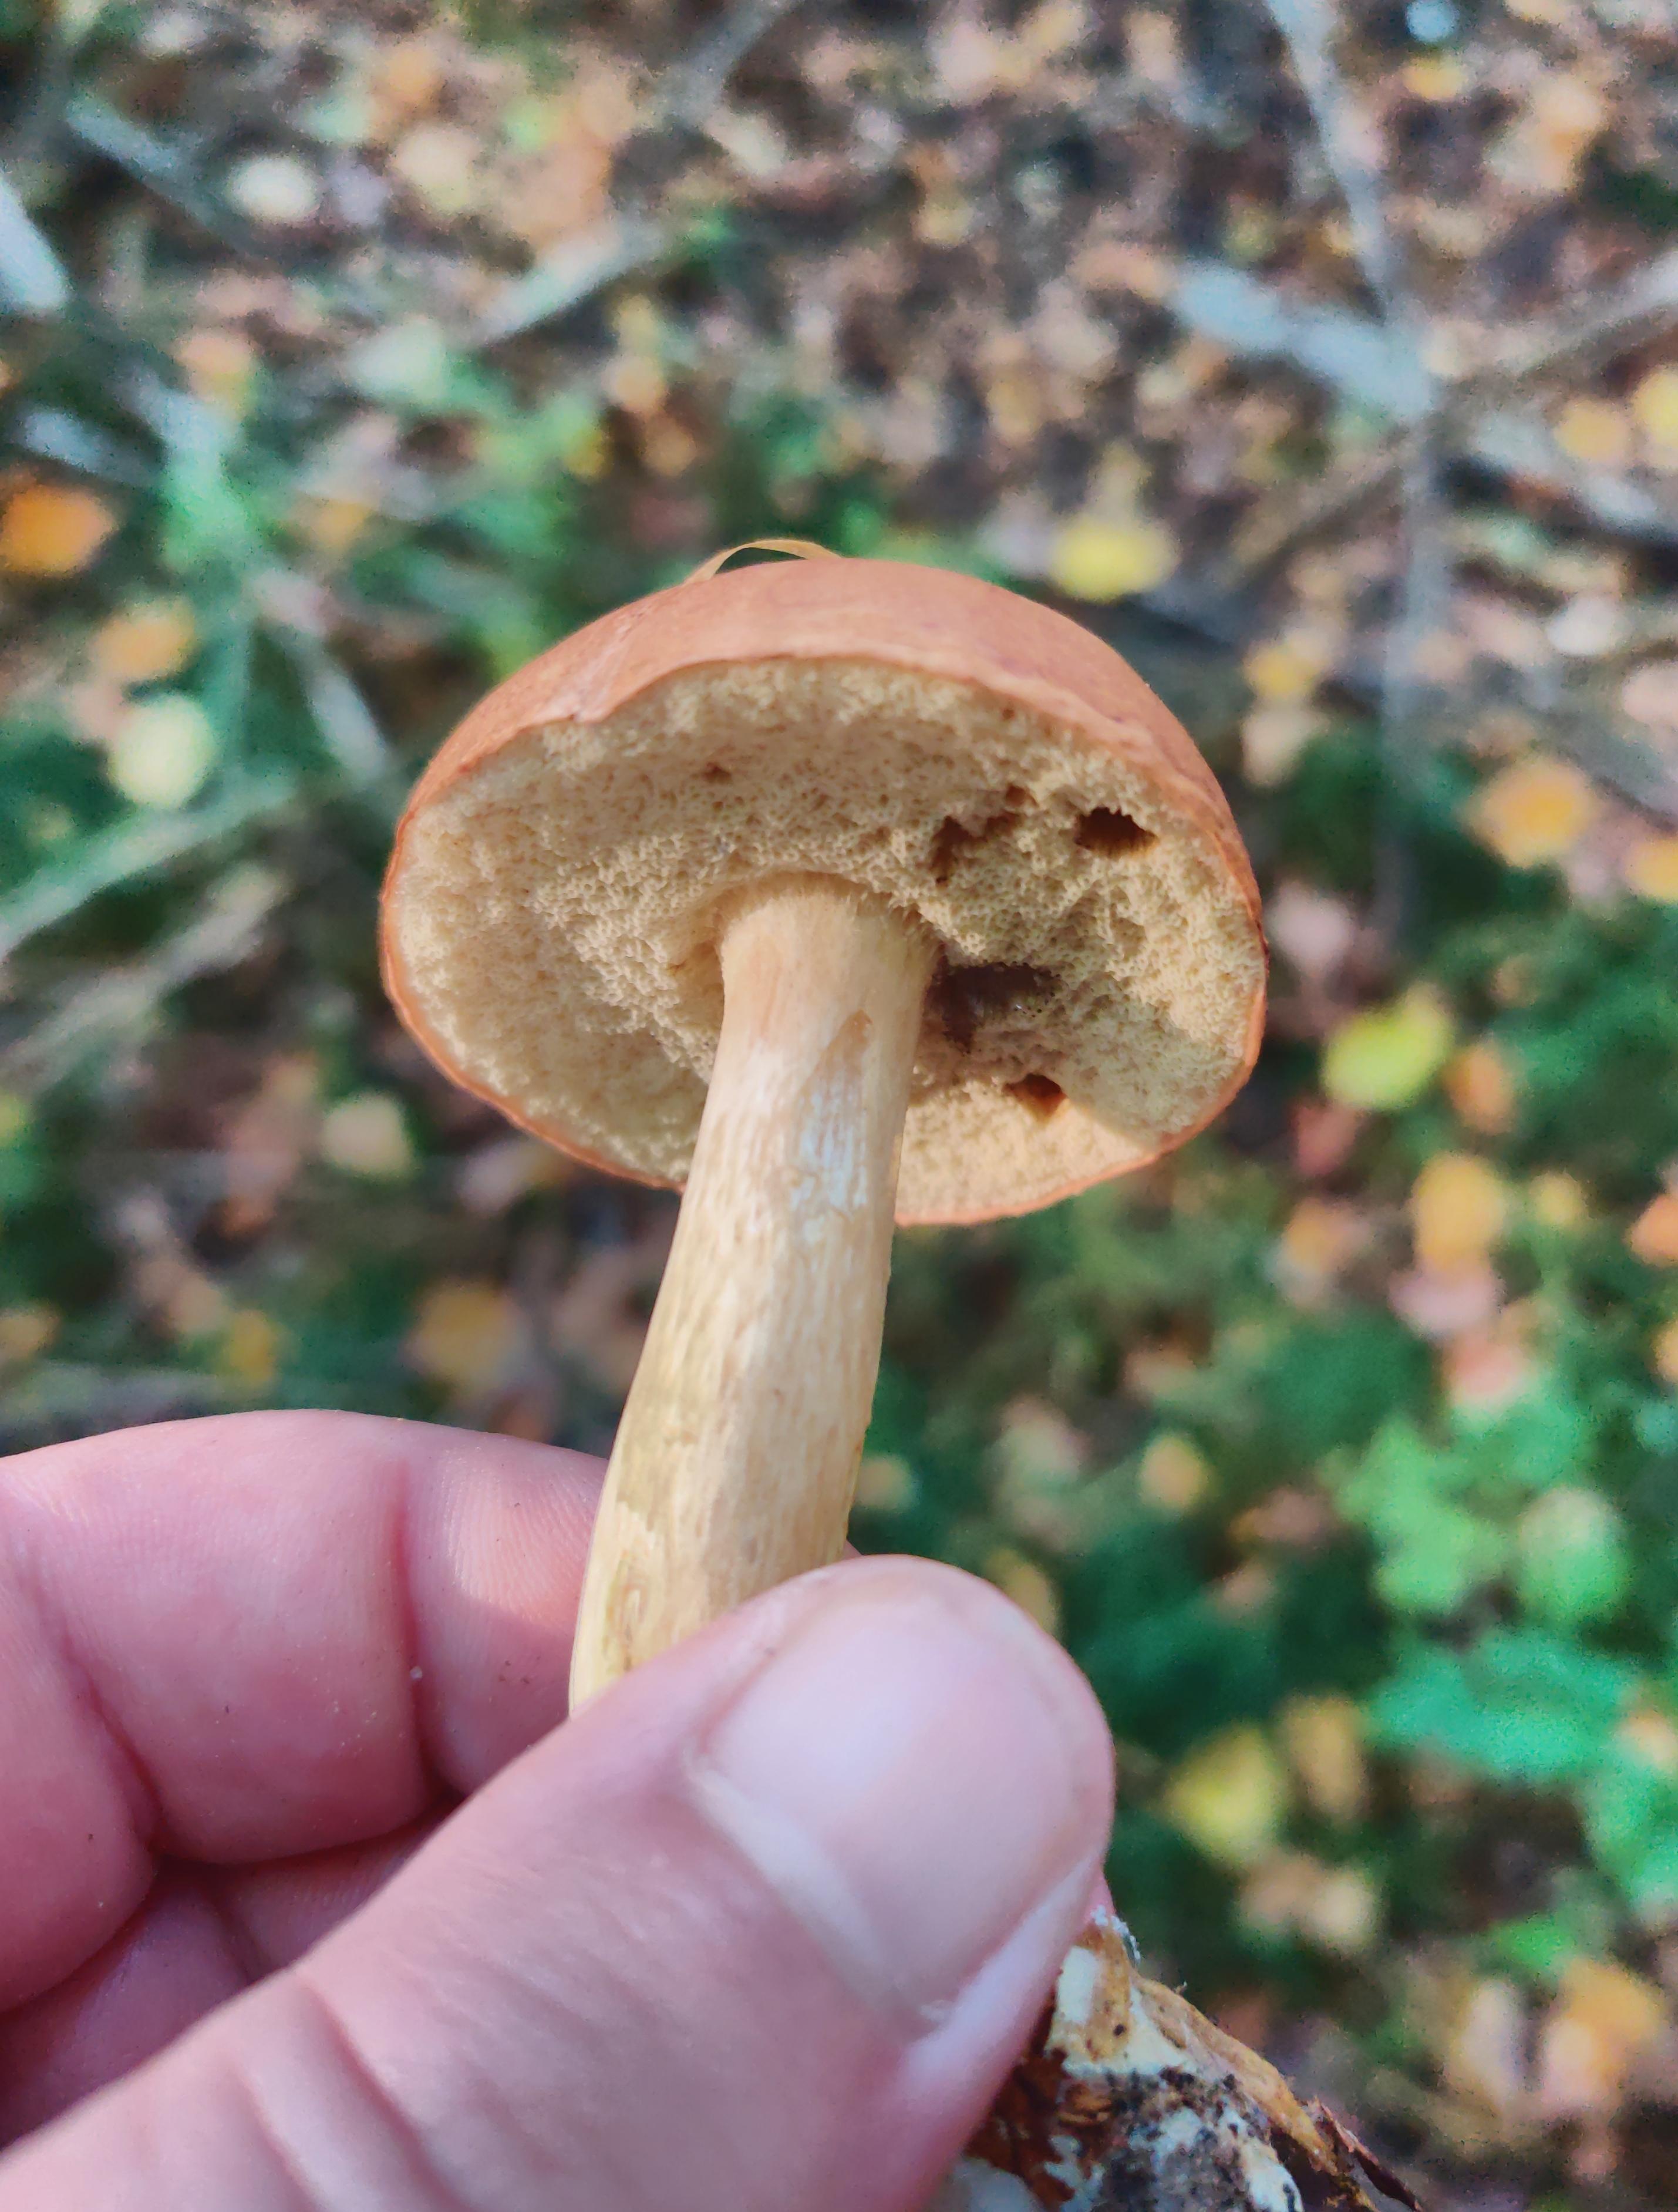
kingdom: Fungi
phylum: Basidiomycota
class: Agaricomycetes
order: Boletales
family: Boletaceae
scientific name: Boletaceae
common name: rørhatfamilien
